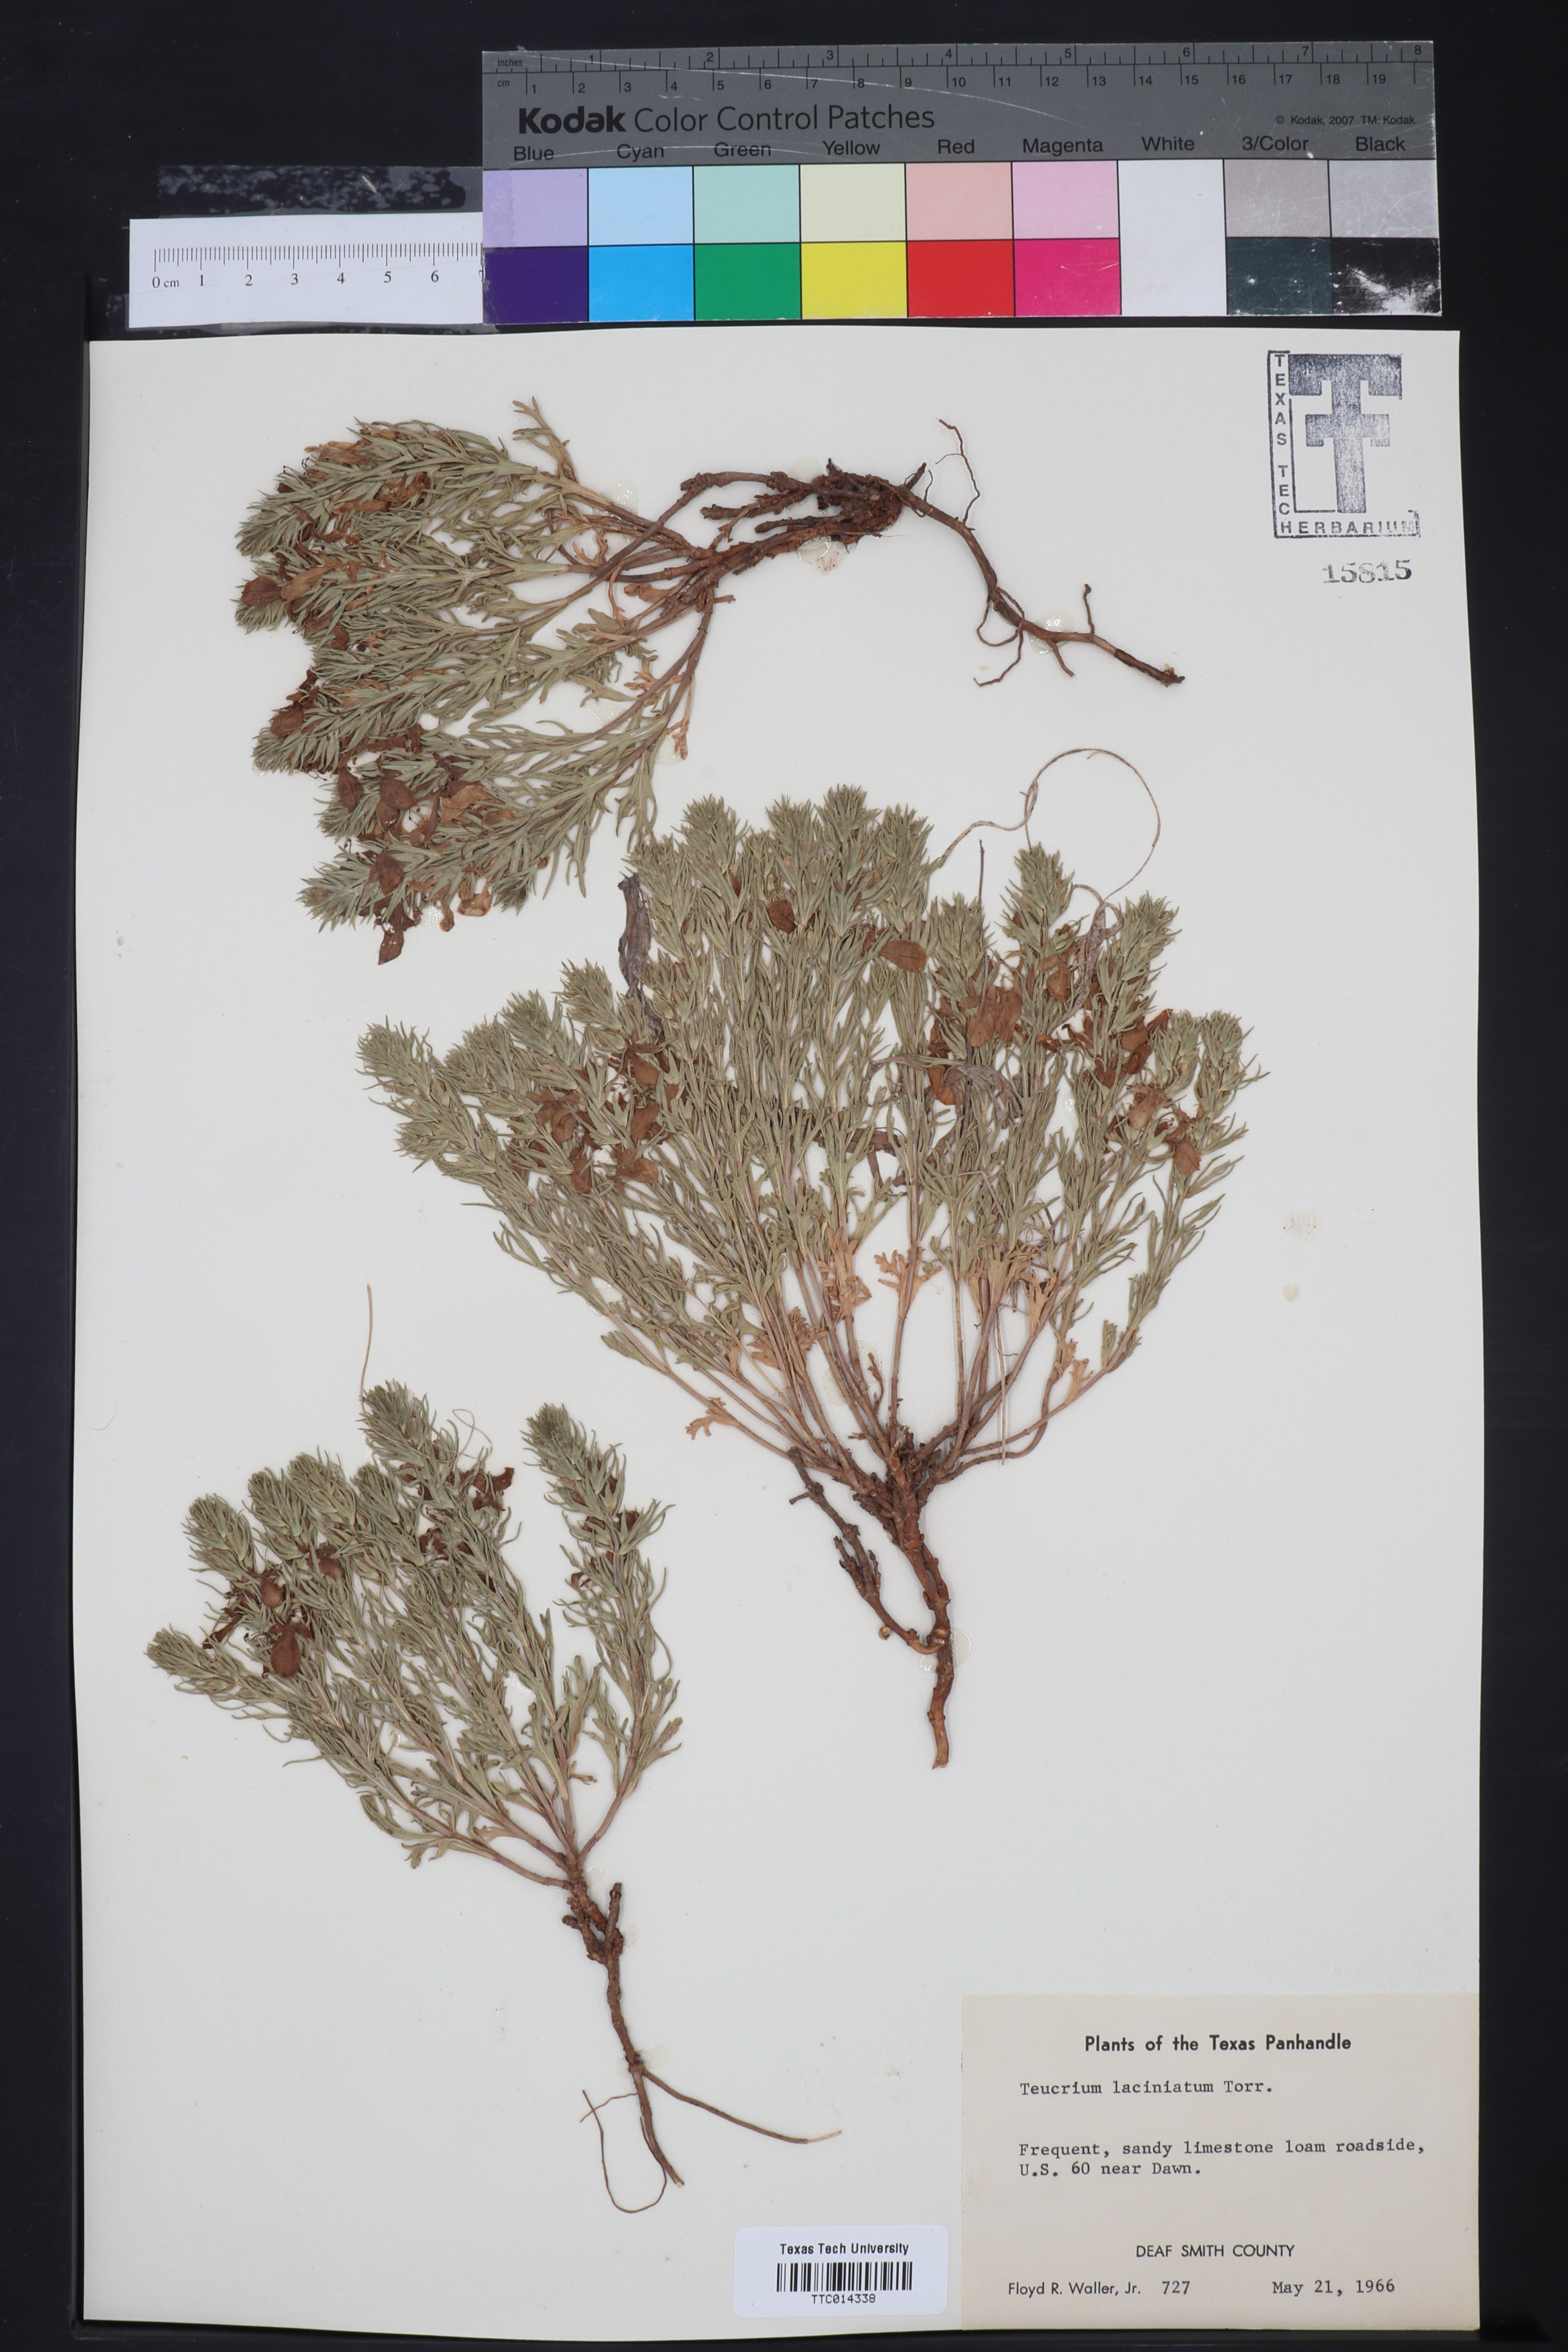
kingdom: Plantae
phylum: Tracheophyta
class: Magnoliopsida
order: Lamiales
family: Lamiaceae
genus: Teucrium
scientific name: Teucrium laciniatum
